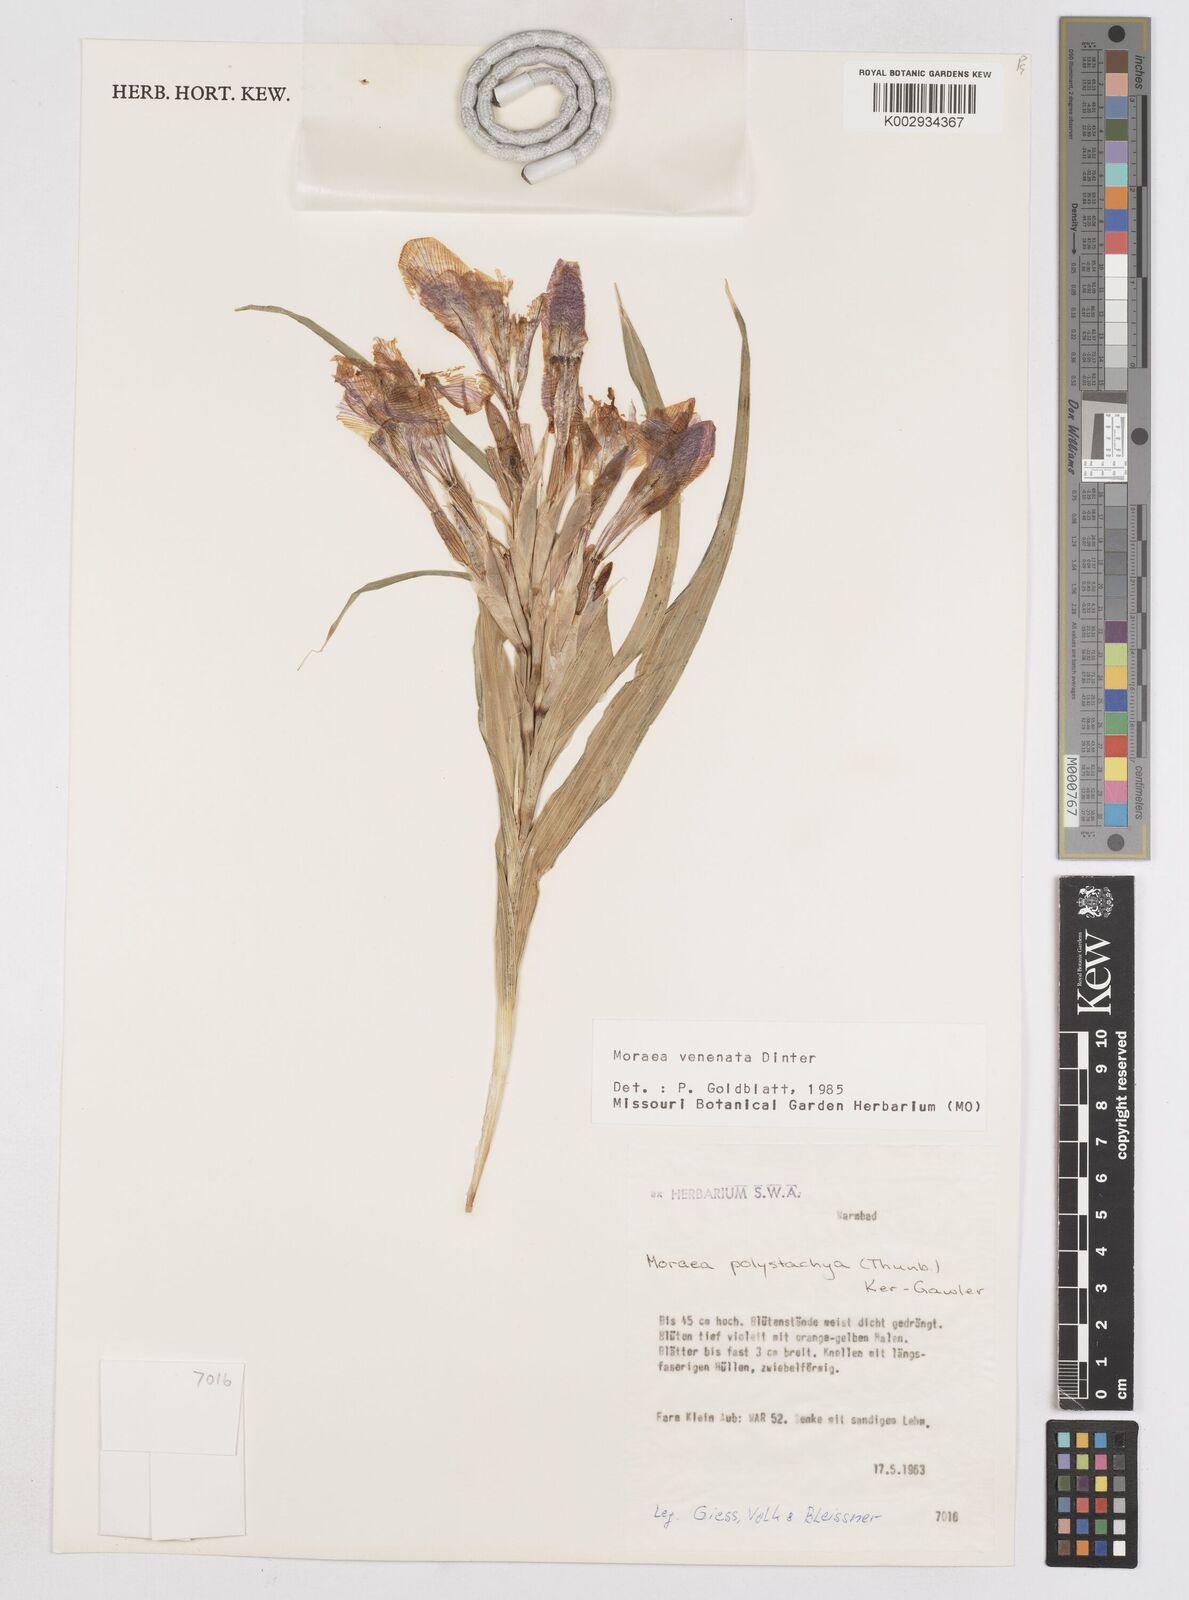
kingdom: Plantae
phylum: Tracheophyta
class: Liliopsida
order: Asparagales
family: Iridaceae
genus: Moraea
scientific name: Moraea venenata
